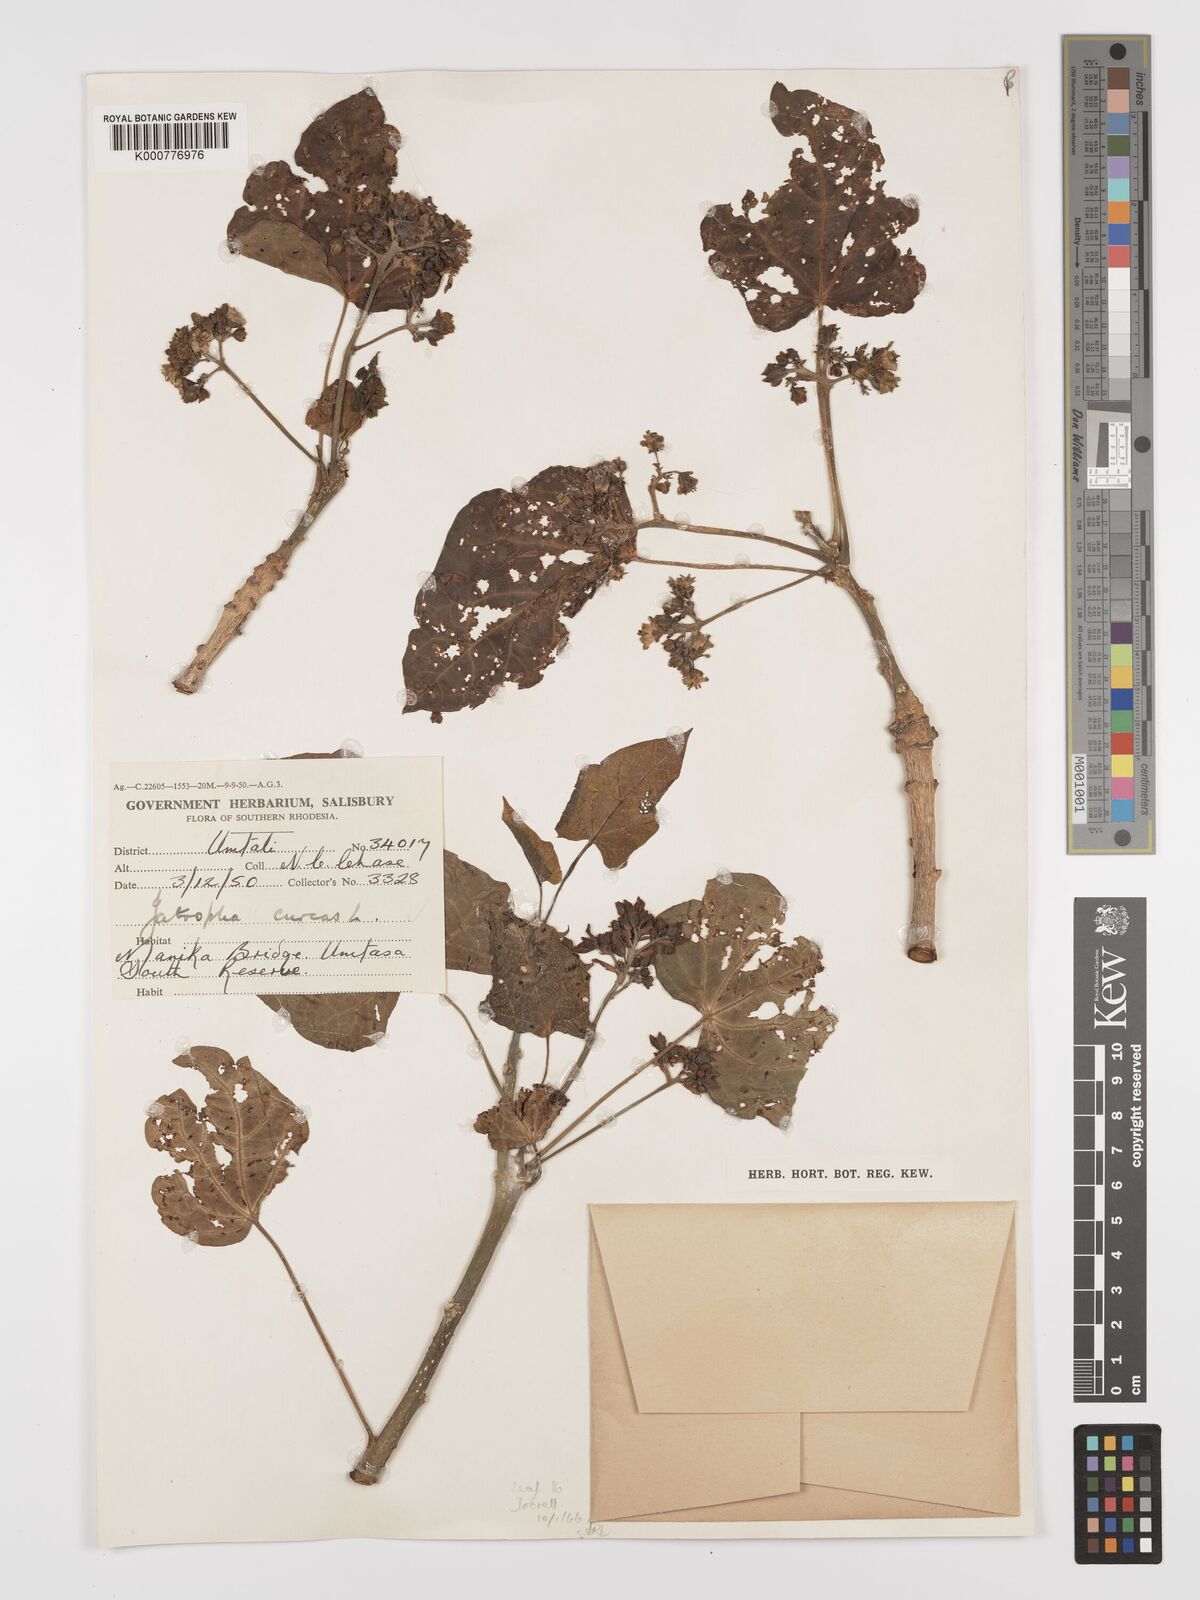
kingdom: Plantae
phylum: Tracheophyta
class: Magnoliopsida
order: Malpighiales
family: Euphorbiaceae
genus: Jatropha
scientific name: Jatropha curcas
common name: Barbados nut
